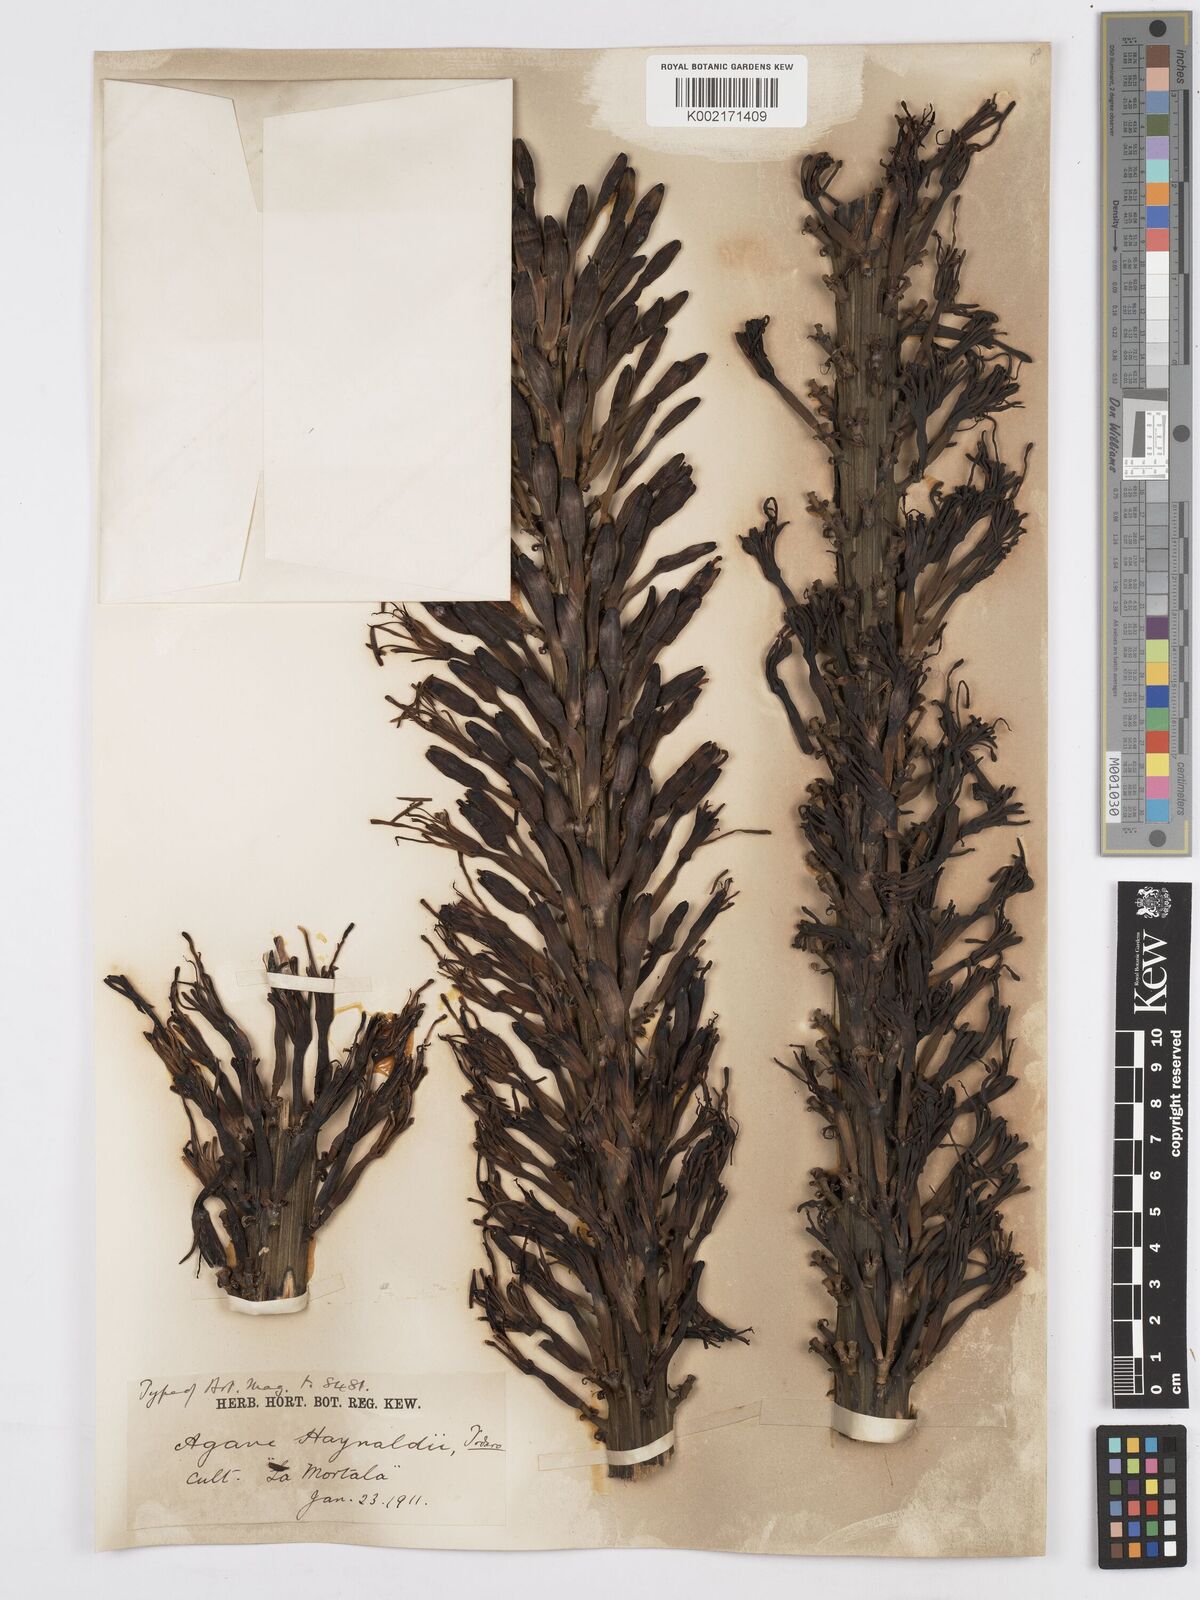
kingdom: Plantae
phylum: Tracheophyta
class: Liliopsida
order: Asparagales
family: Asparagaceae
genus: Agave
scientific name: Agave utahensis
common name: Utah agave
